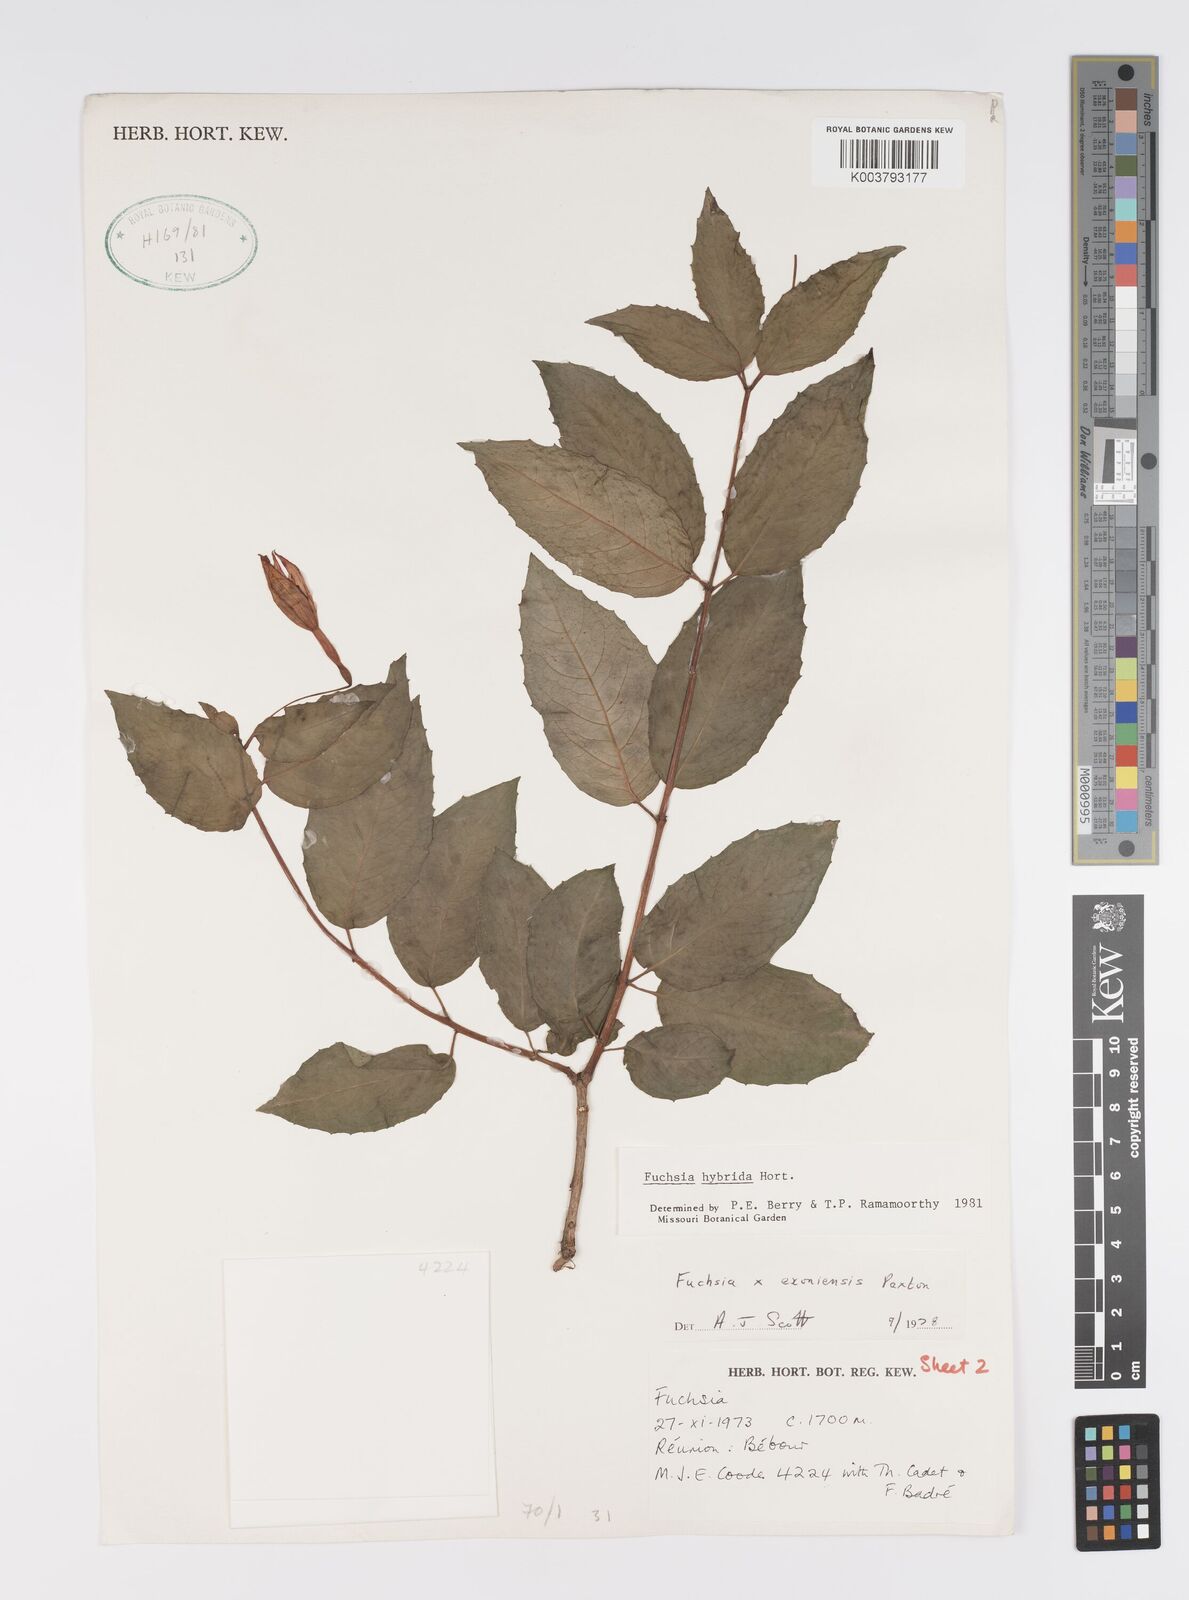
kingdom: Plantae
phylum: Tracheophyta
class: Magnoliopsida
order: Myrtales
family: Onagraceae
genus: Fuchsia
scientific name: Fuchsia
